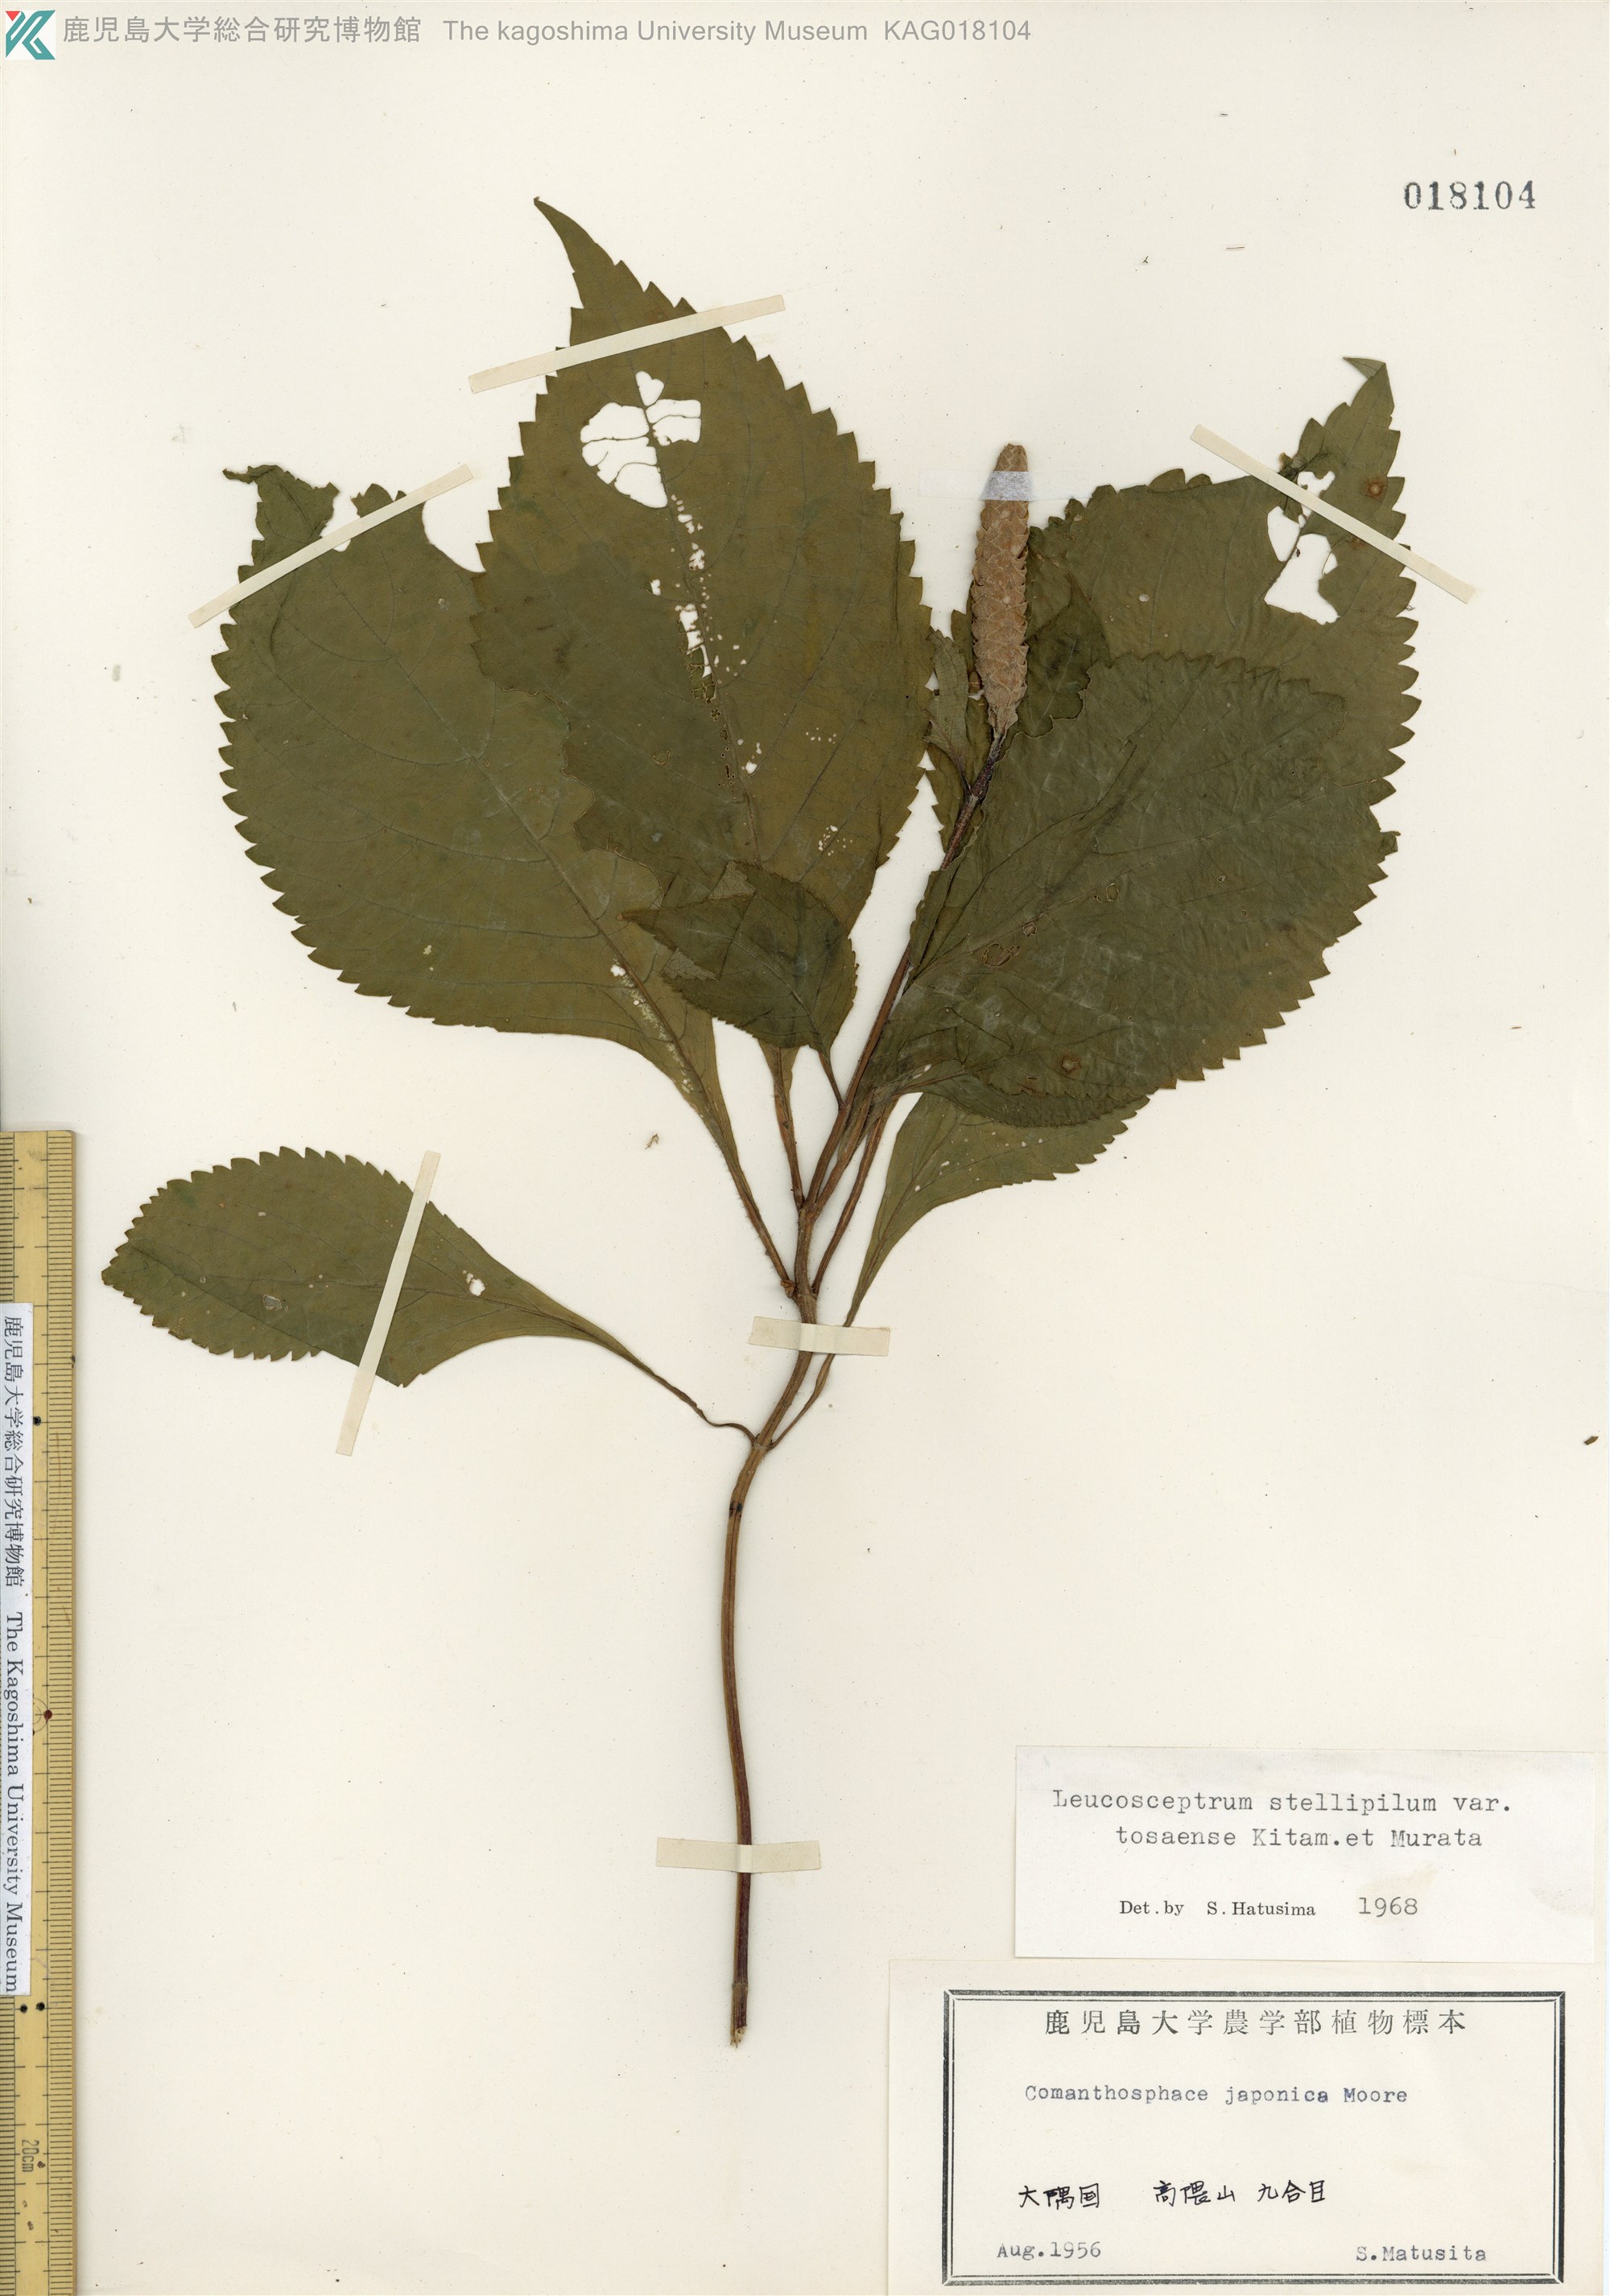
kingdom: Plantae
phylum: Tracheophyta
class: Magnoliopsida
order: Lamiales
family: Lamiaceae
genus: Comanthosphace
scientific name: Comanthosphace japonica
